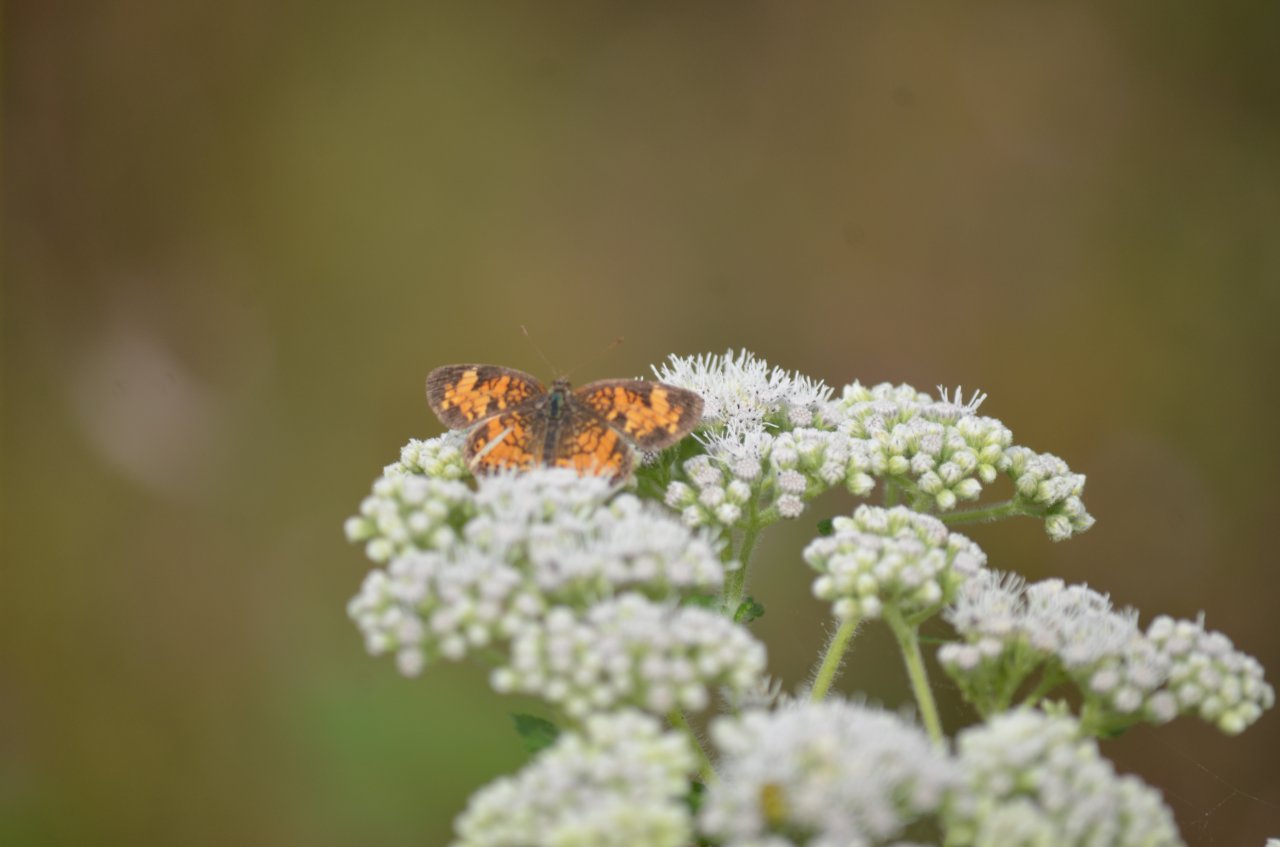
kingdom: Animalia
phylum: Arthropoda
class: Insecta
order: Lepidoptera
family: Nymphalidae
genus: Phyciodes
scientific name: Phyciodes tharos
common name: Northern Crescent
